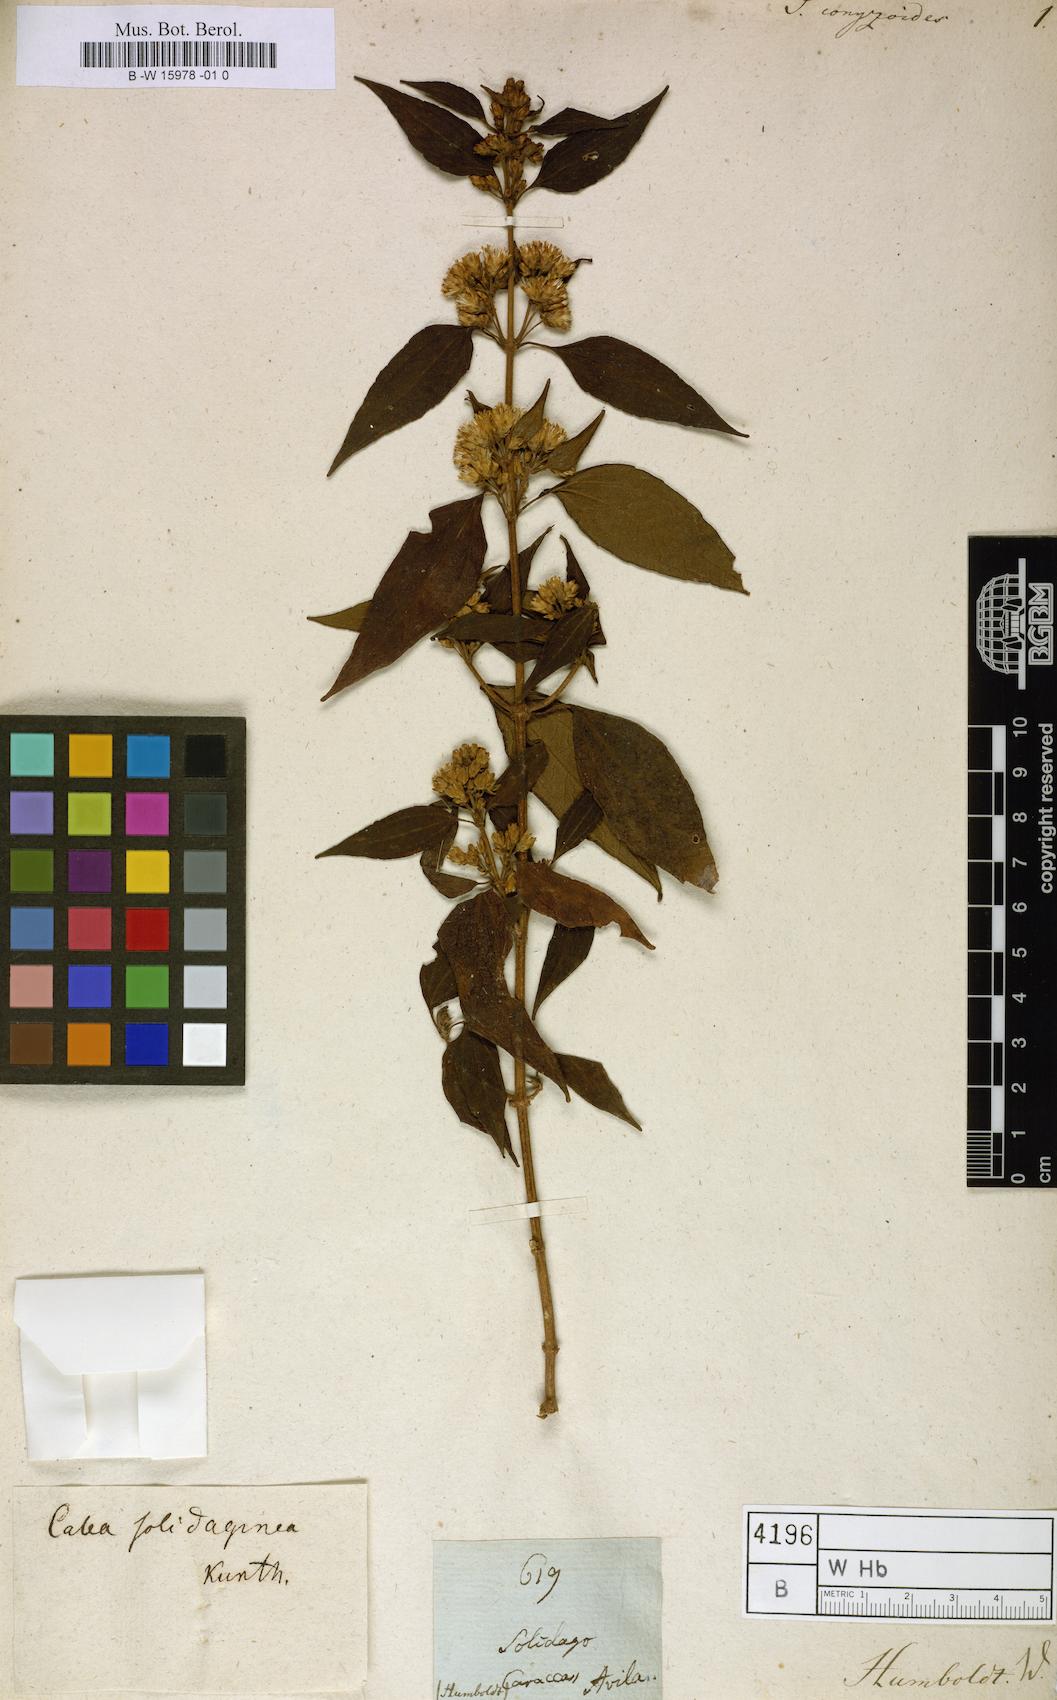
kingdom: Plantae
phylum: Tracheophyta
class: Magnoliopsida
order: Asterales
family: Asteraceae
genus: Solidago
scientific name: Solidago
